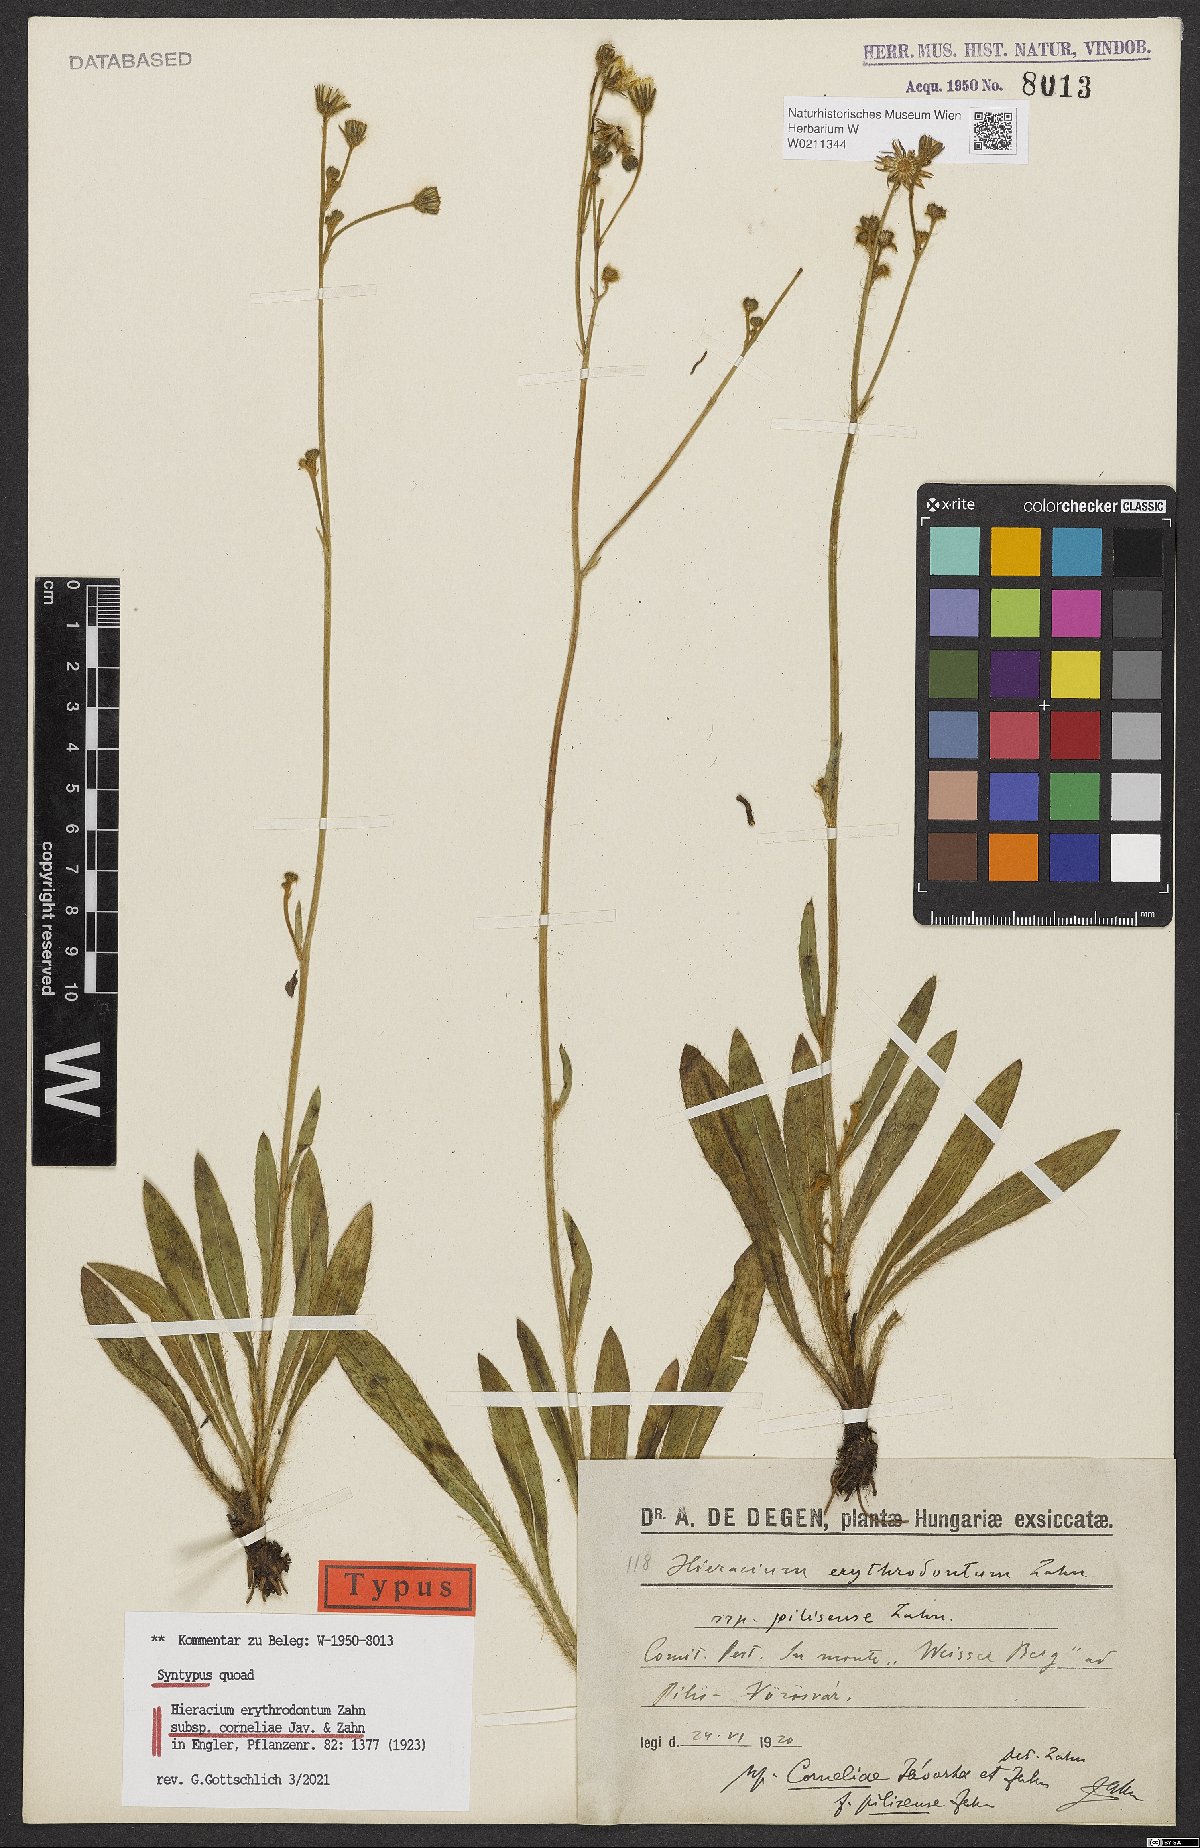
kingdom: Plantae
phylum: Tracheophyta
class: Magnoliopsida
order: Asterales
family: Asteraceae
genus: Pilosella
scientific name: Pilosella erythrodonta
